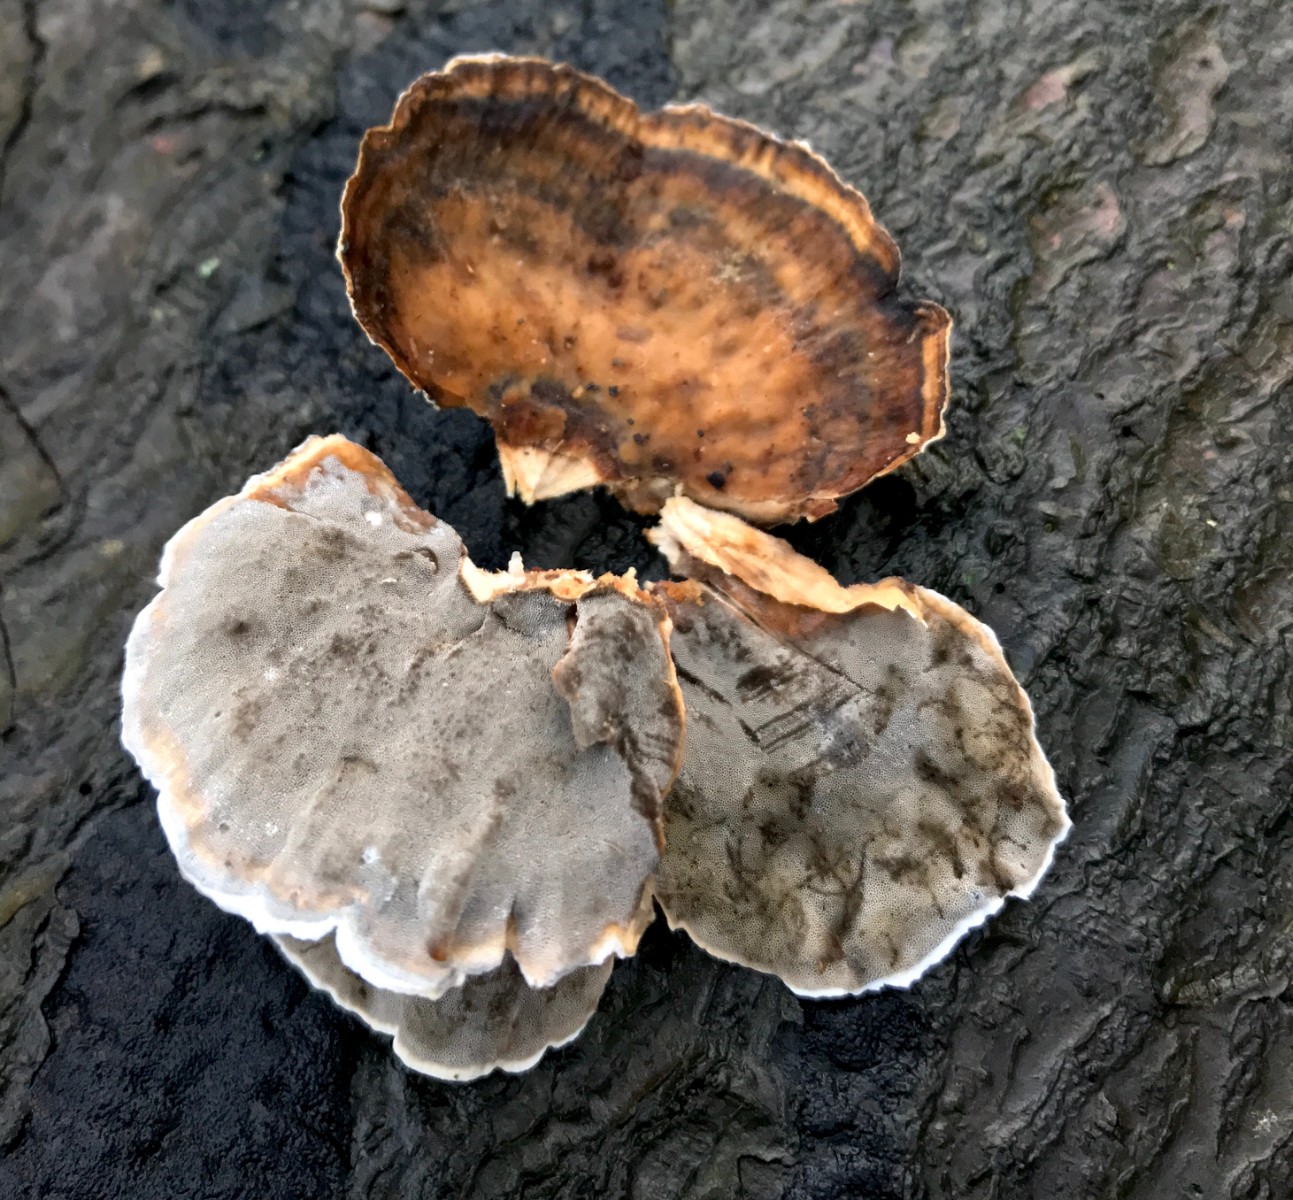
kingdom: Fungi
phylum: Basidiomycota
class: Agaricomycetes
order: Polyporales
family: Phanerochaetaceae
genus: Bjerkandera
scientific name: Bjerkandera adusta
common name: sveden sodporesvamp
